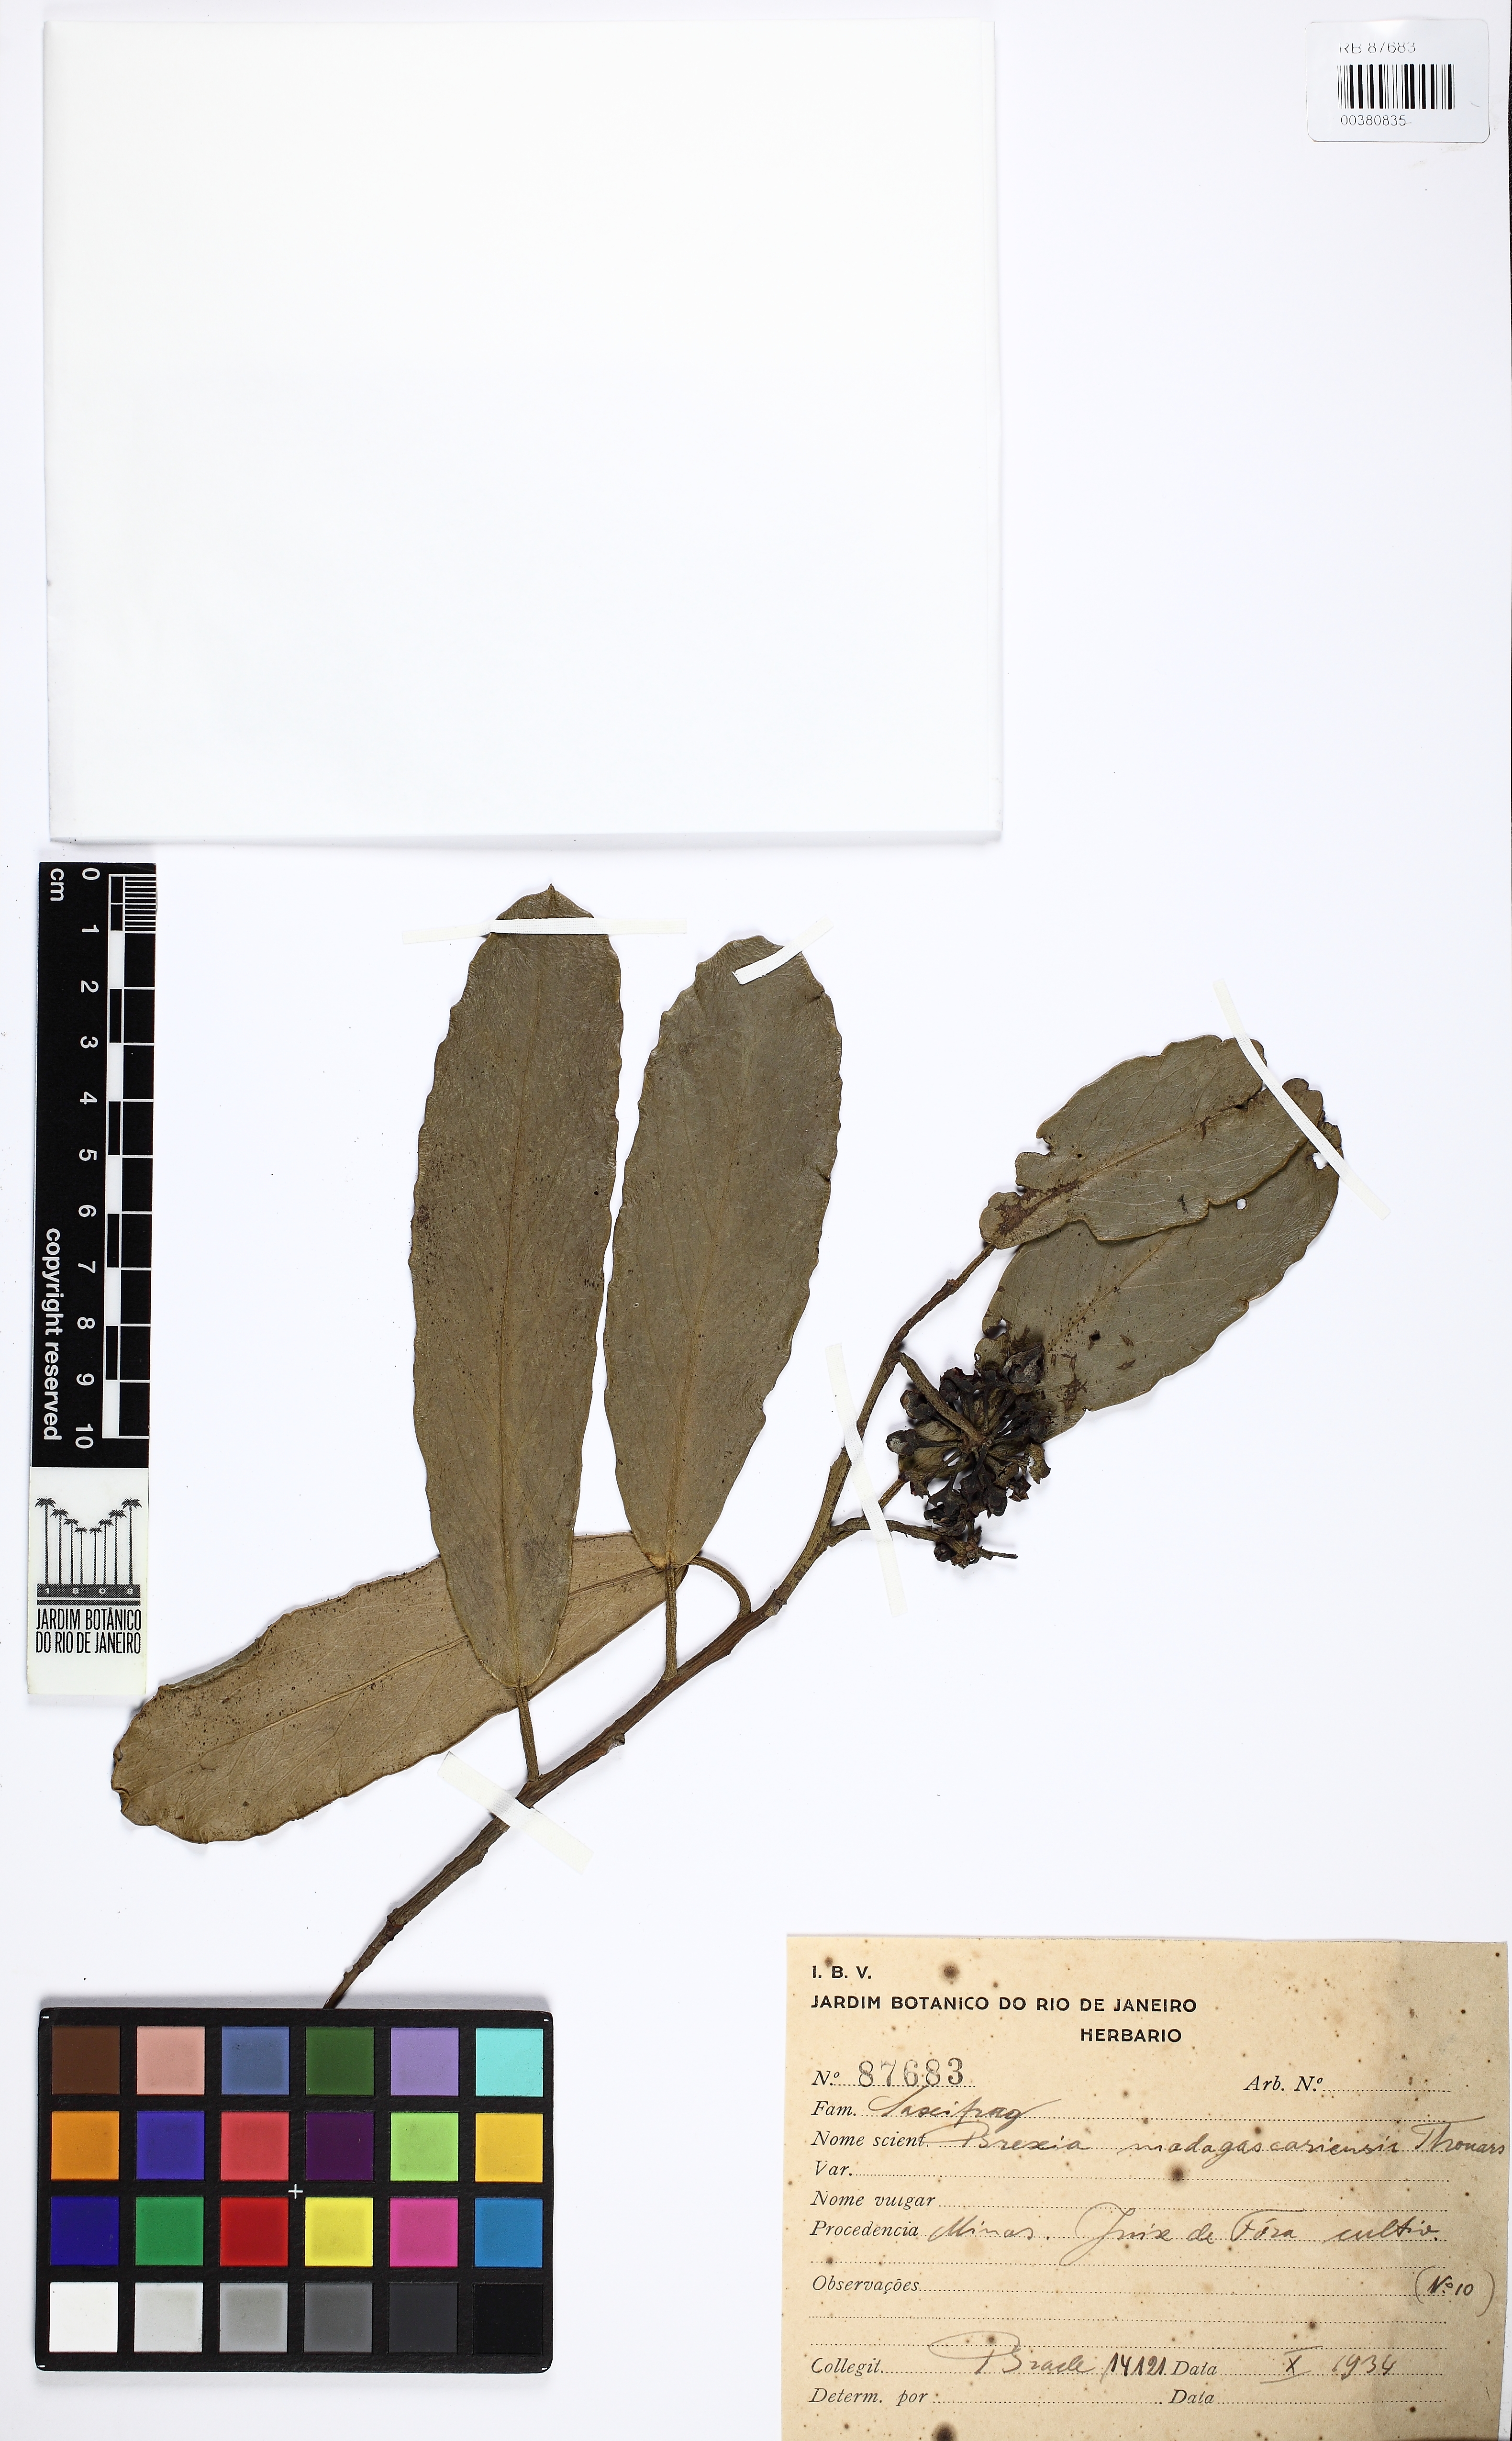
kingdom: Plantae
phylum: Tracheophyta
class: Magnoliopsida
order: Celastrales
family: Celastraceae
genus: Brexia
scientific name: Brexia madagascariensis
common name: Brexia
